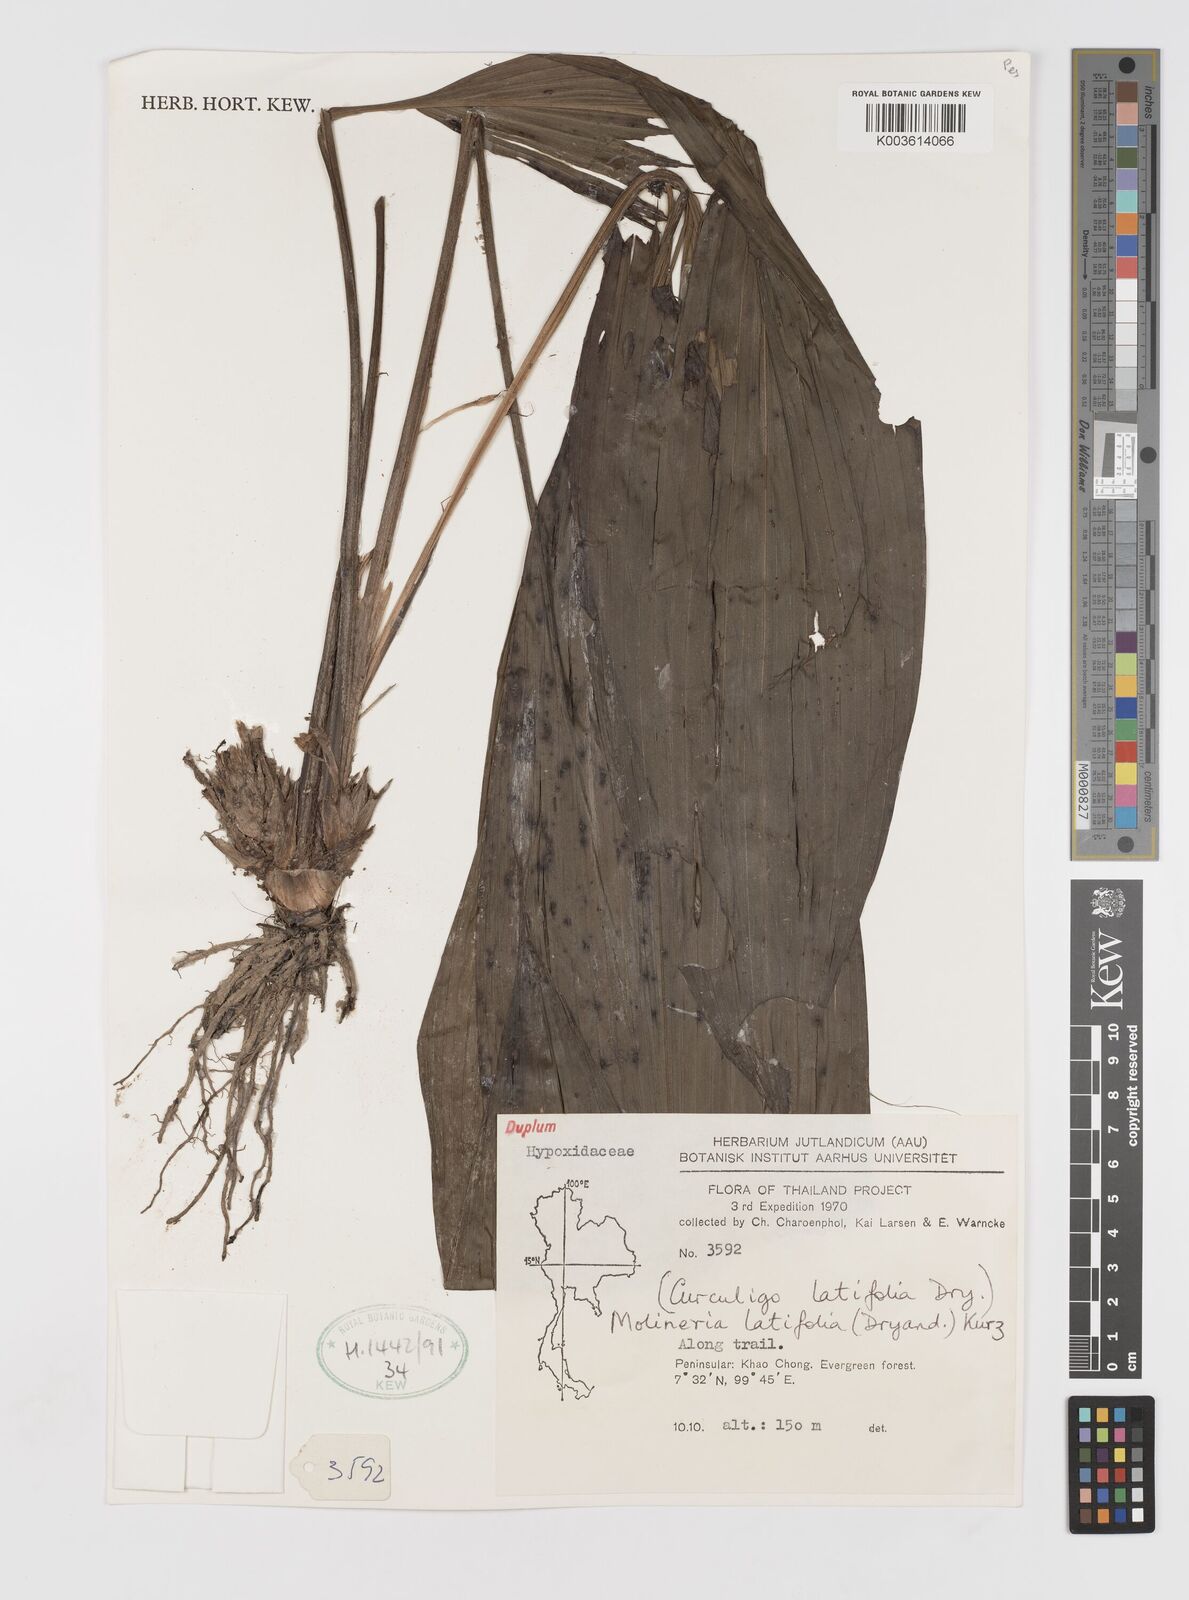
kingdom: Plantae
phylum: Tracheophyta
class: Liliopsida
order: Asparagales
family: Hypoxidaceae
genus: Curculigo
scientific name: Curculigo latifolia
